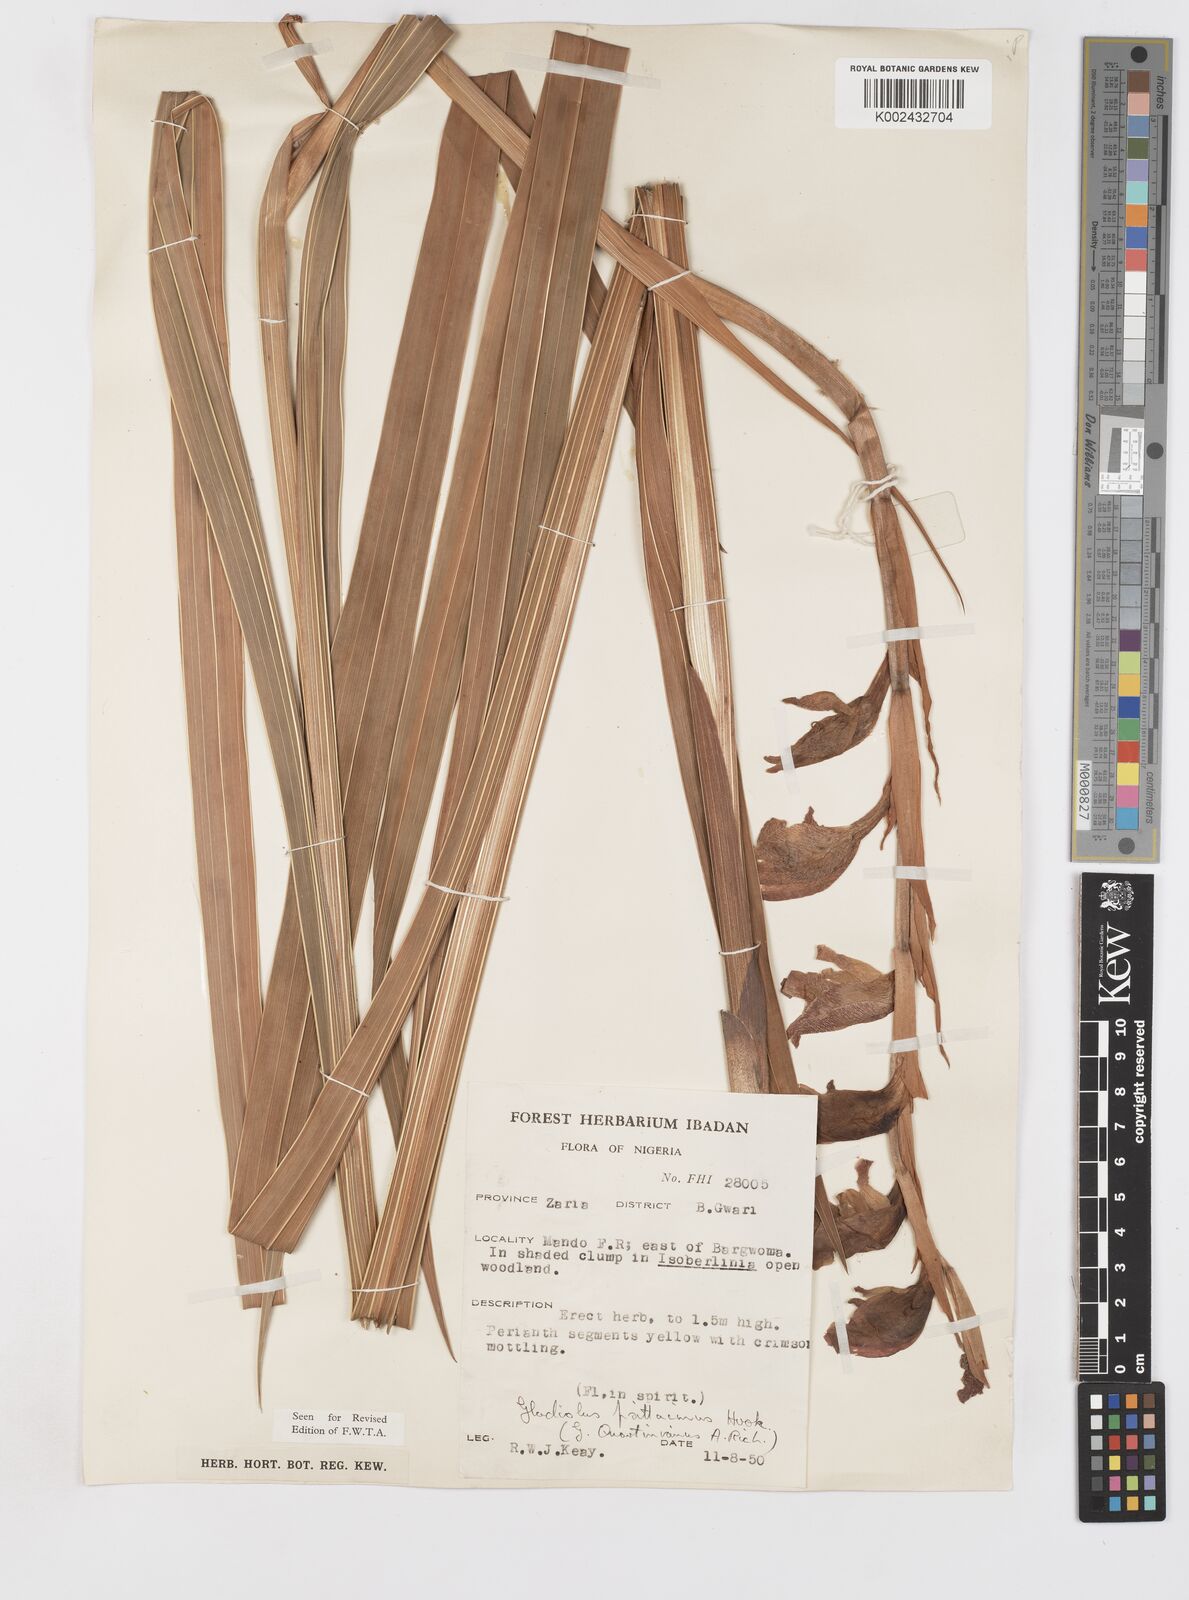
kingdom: Plantae
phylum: Tracheophyta
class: Liliopsida
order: Asparagales
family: Iridaceae
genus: Gladiolus
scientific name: Gladiolus dalenii
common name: Cornflag
